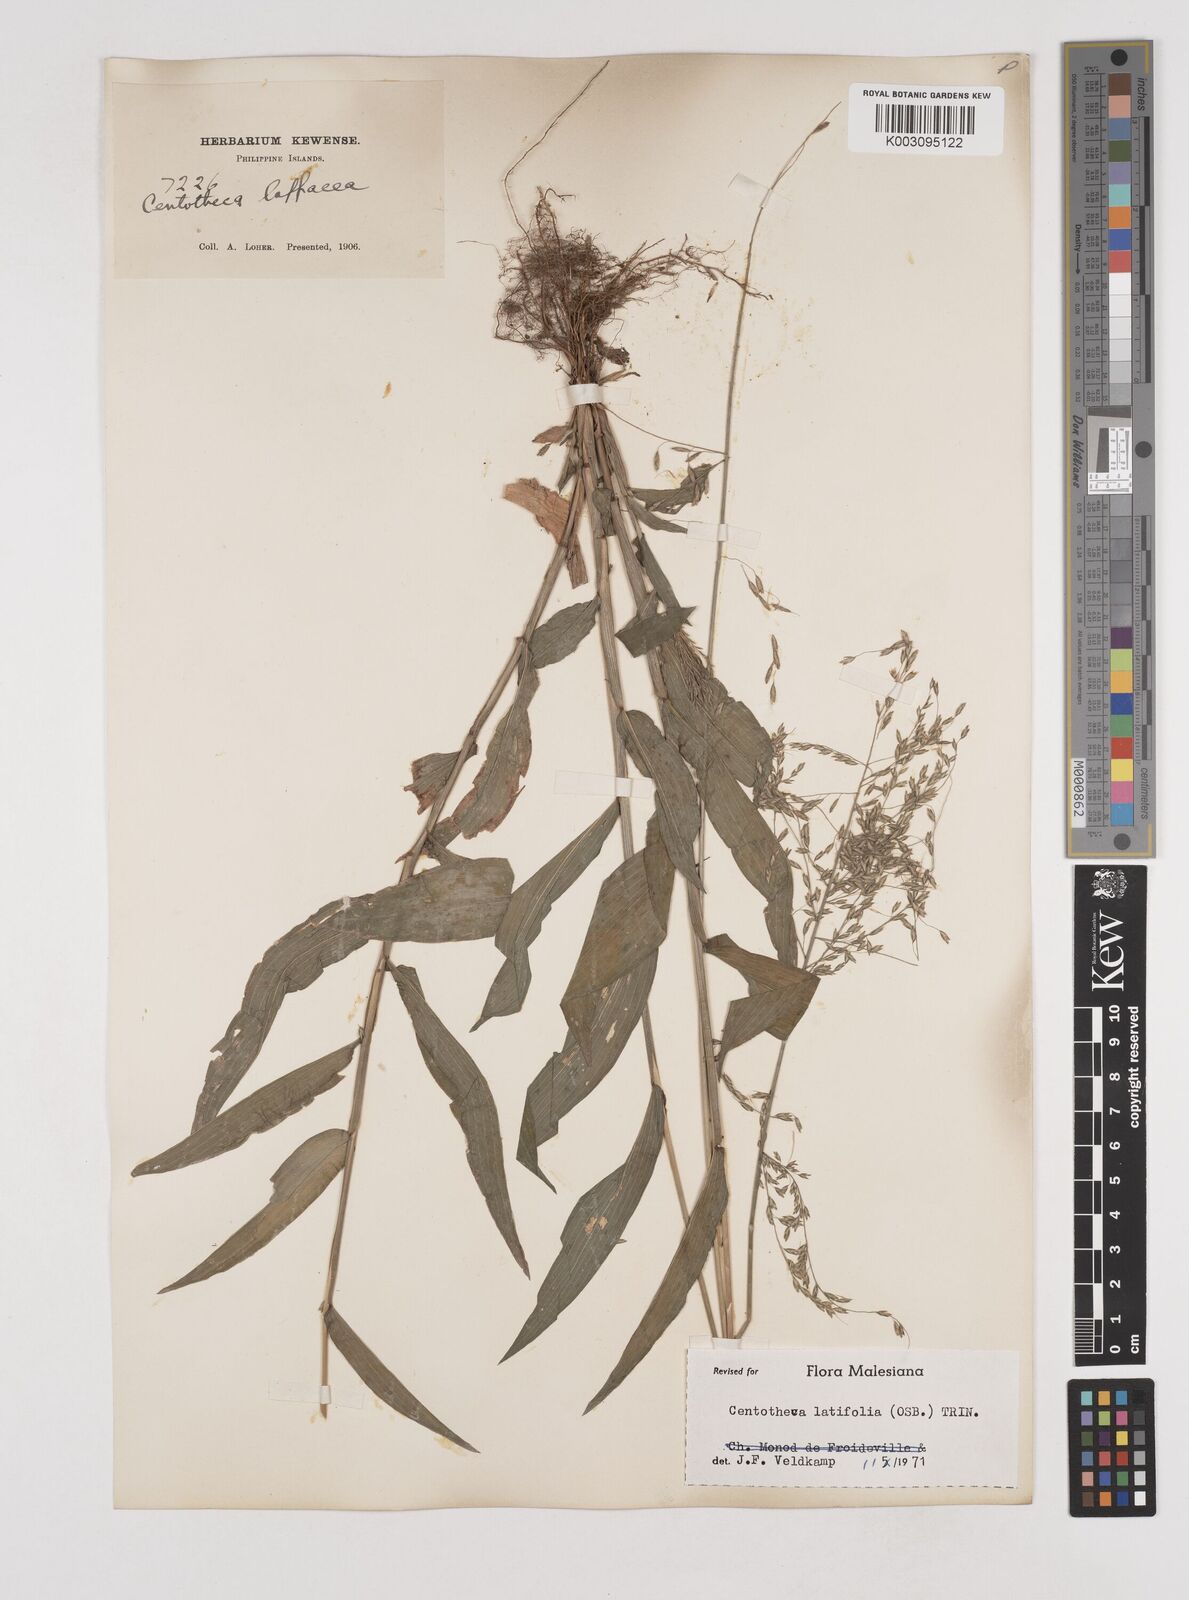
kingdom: Plantae
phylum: Tracheophyta
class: Liliopsida
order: Poales
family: Poaceae
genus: Centotheca
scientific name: Centotheca lappacea
